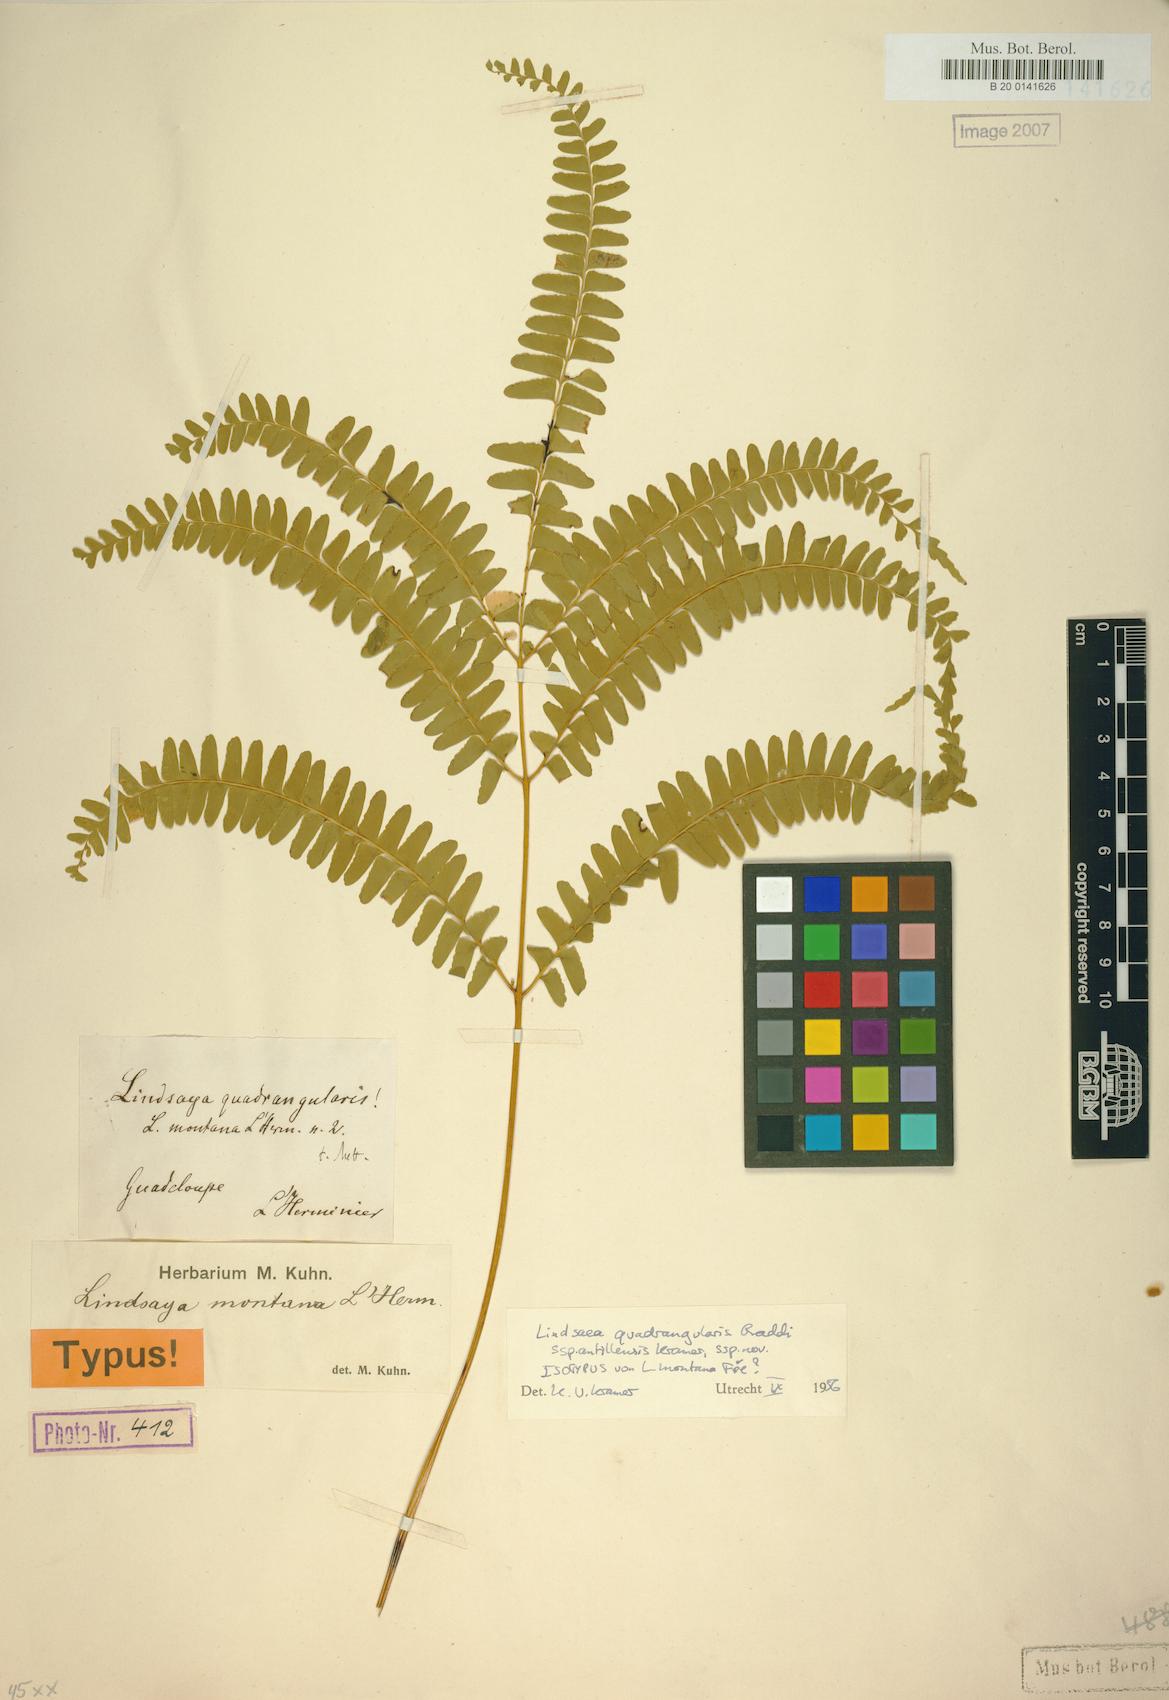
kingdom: Plantae
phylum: Tracheophyta
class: Polypodiopsida
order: Polypodiales
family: Lindsaeaceae
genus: Lindsaea
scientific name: Lindsaea quadrangularis
